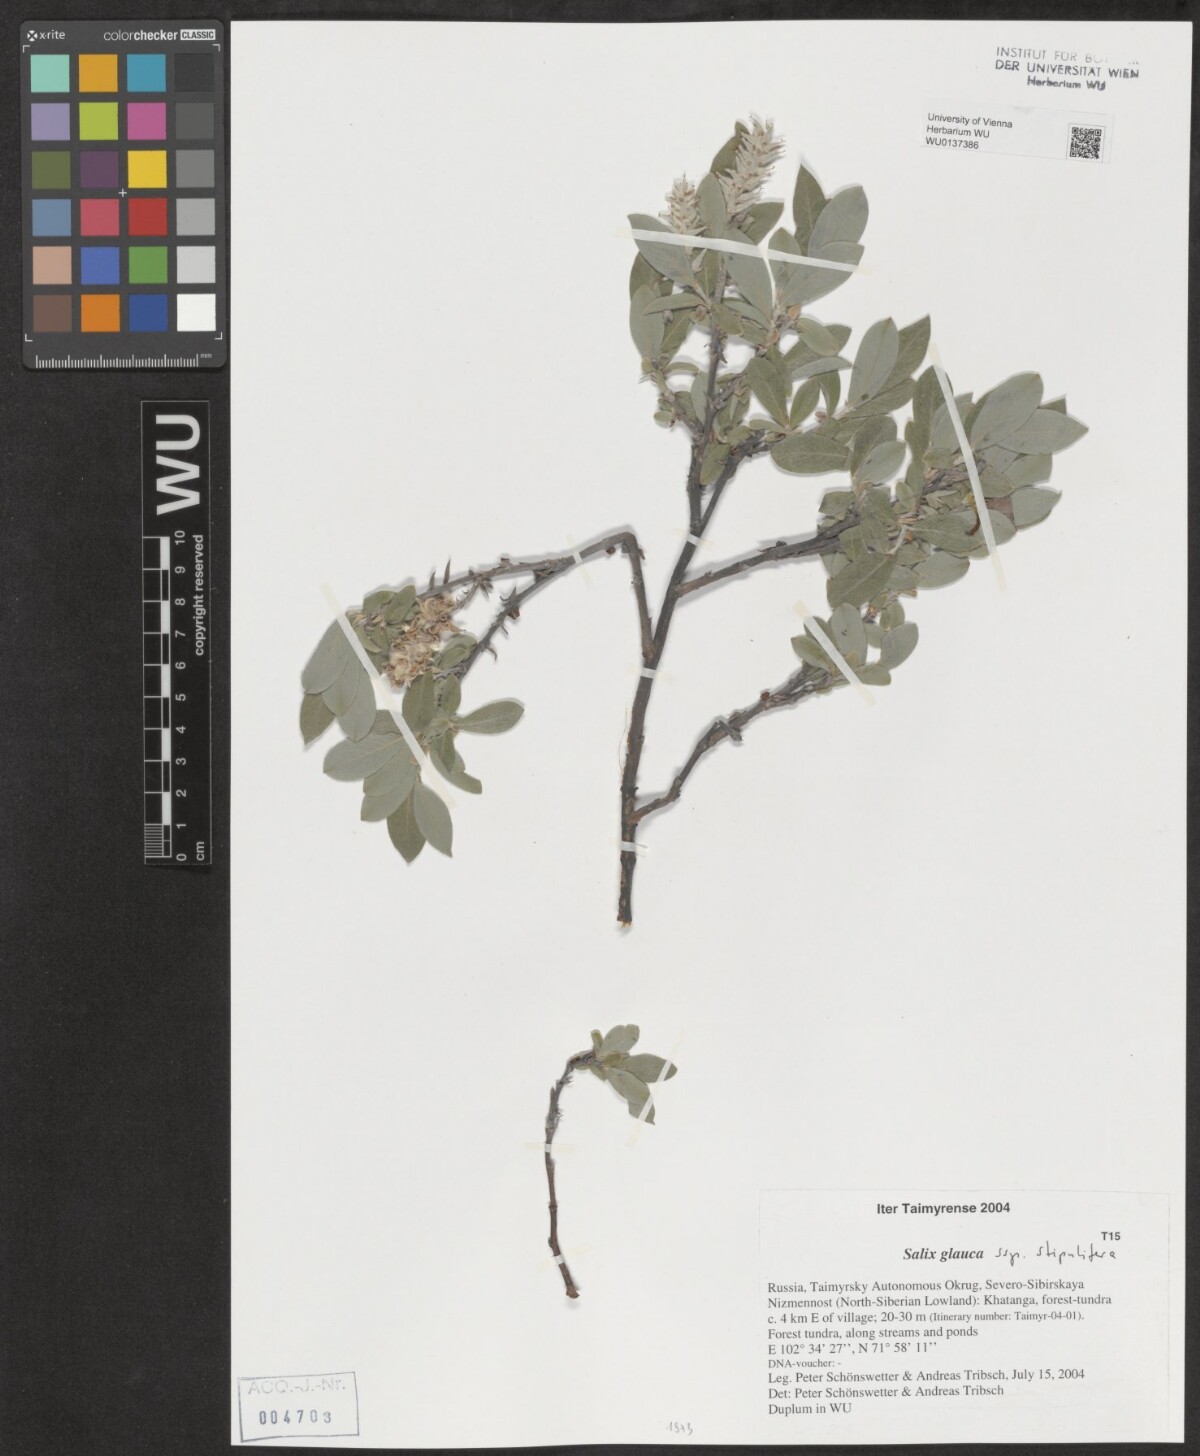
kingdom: Plantae
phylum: Tracheophyta
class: Magnoliopsida
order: Malpighiales
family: Salicaceae
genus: Salix
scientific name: Salix glauca
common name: Glaucous willow
